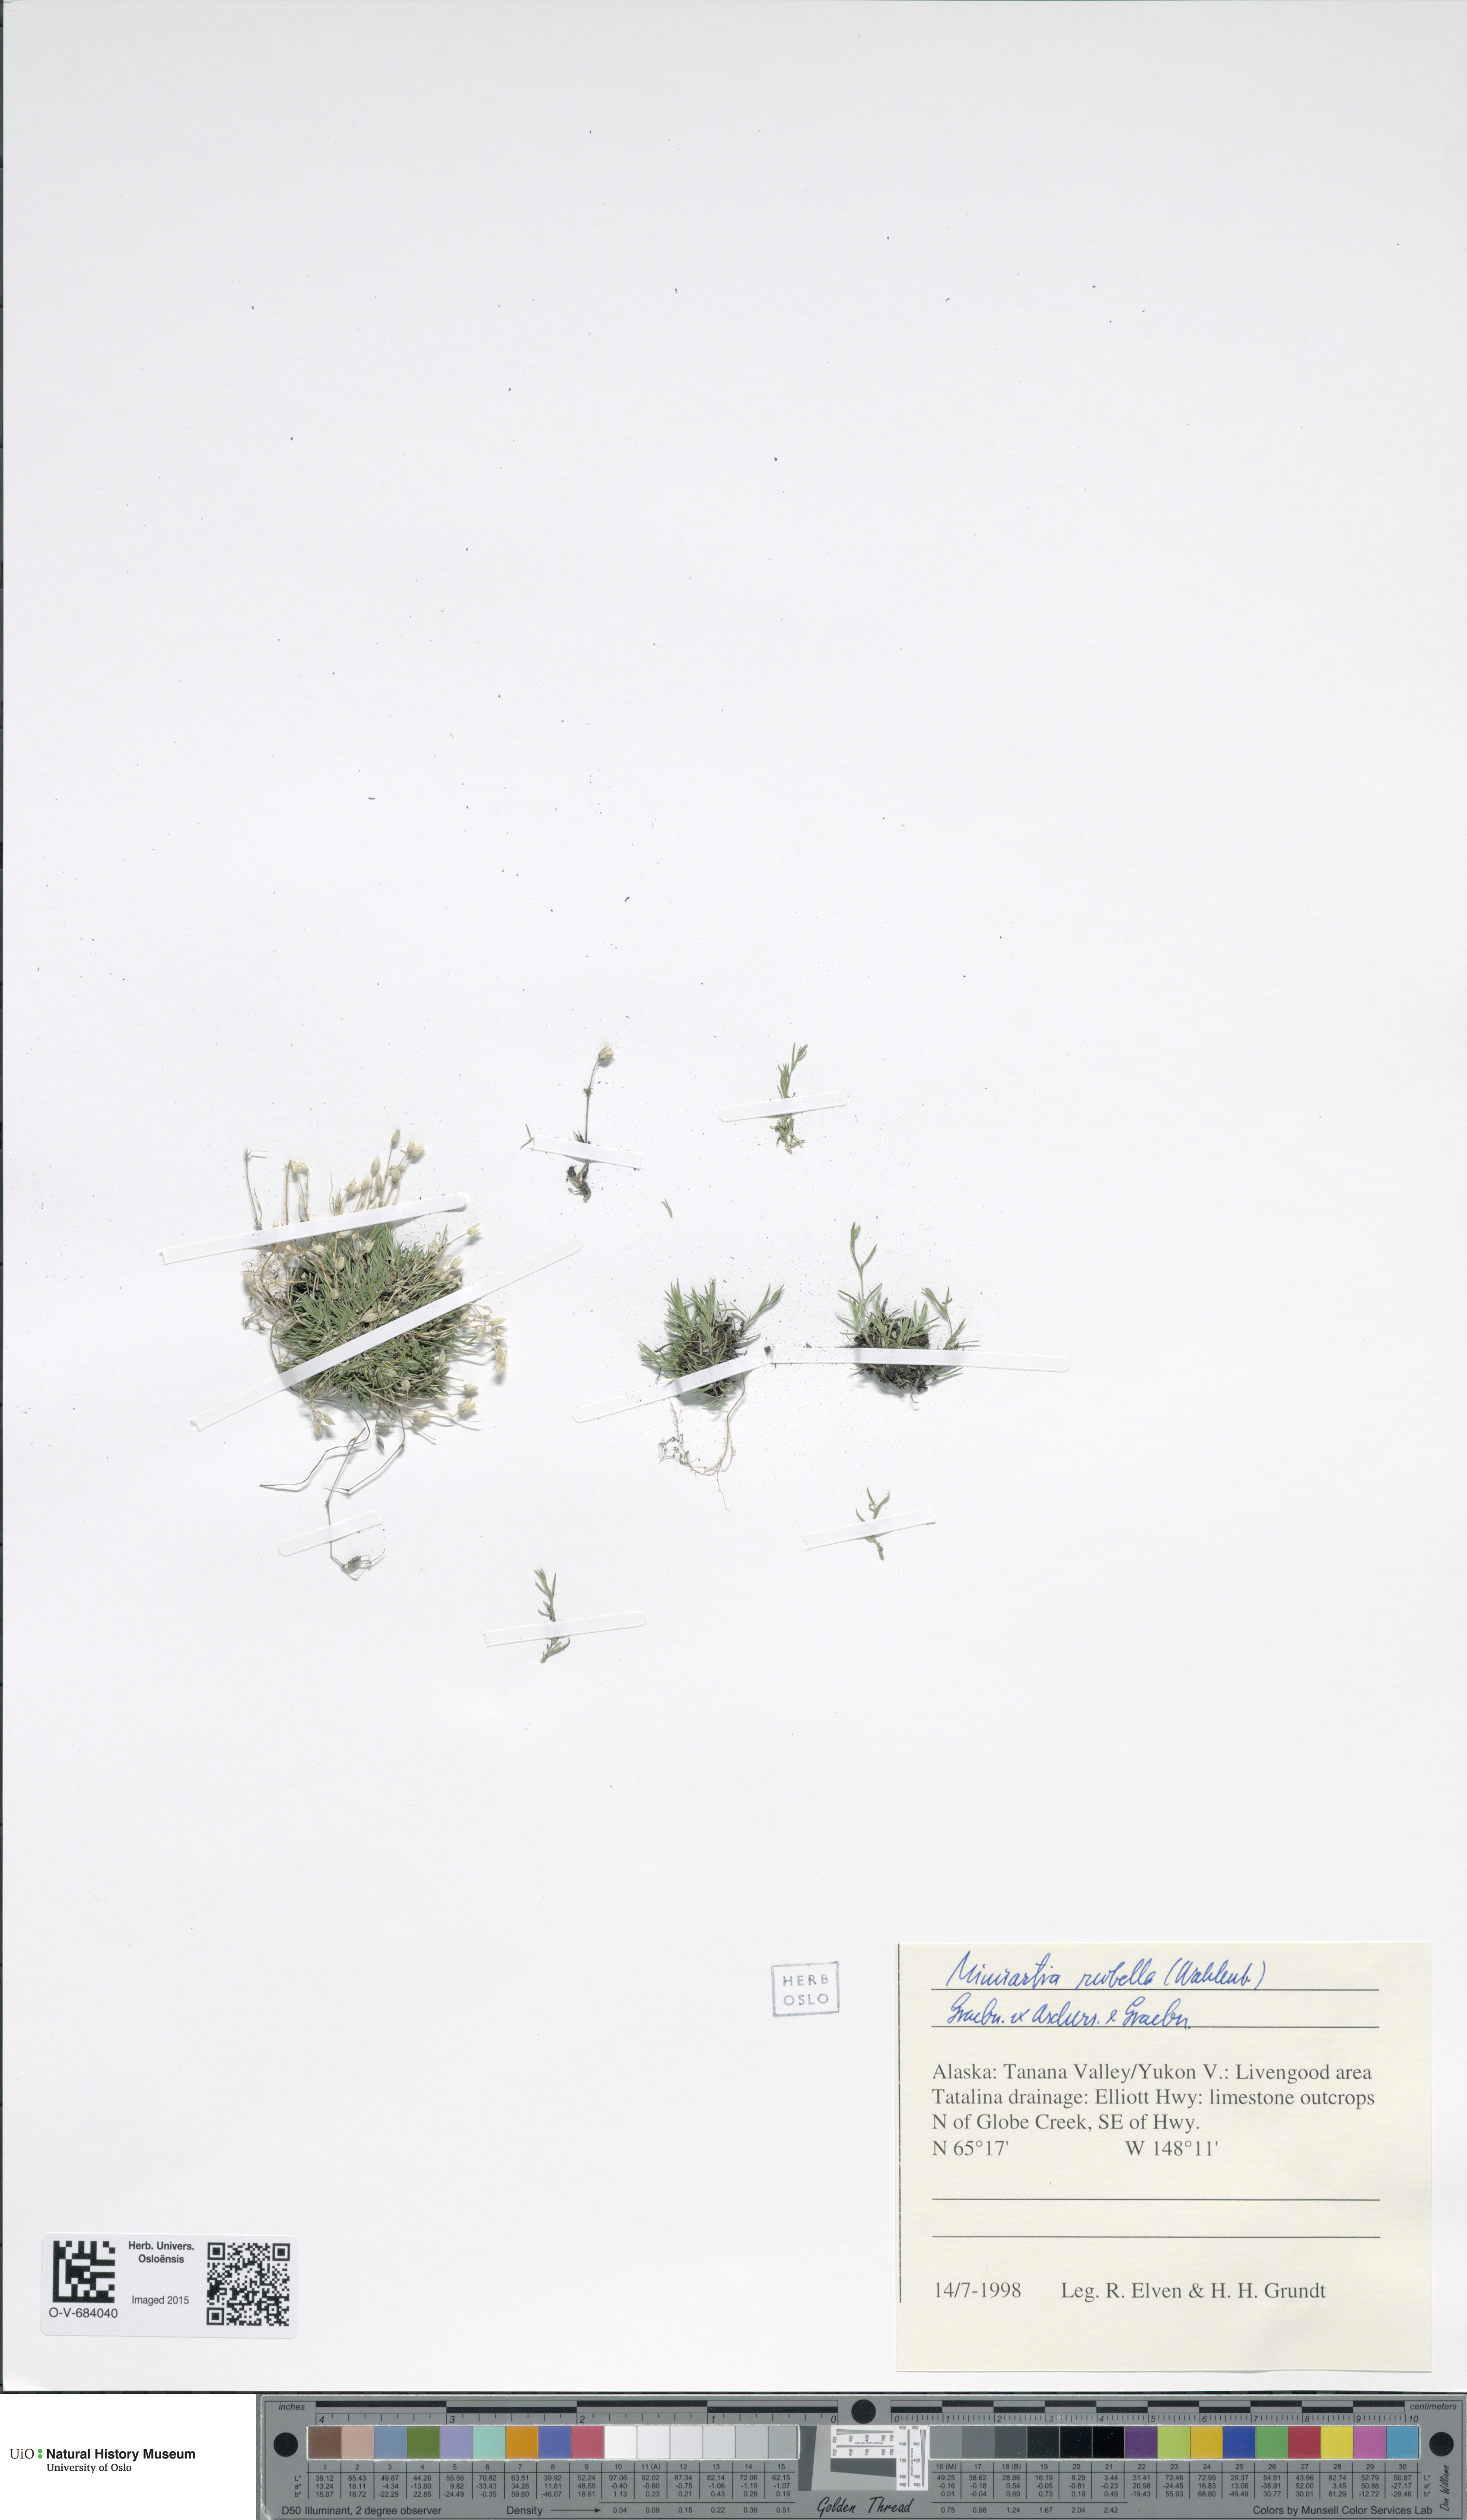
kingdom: Plantae
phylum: Tracheophyta
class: Magnoliopsida
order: Caryophyllales
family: Caryophyllaceae
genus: Sabulina
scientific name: Sabulina rubella
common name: Beautiful sandwort
